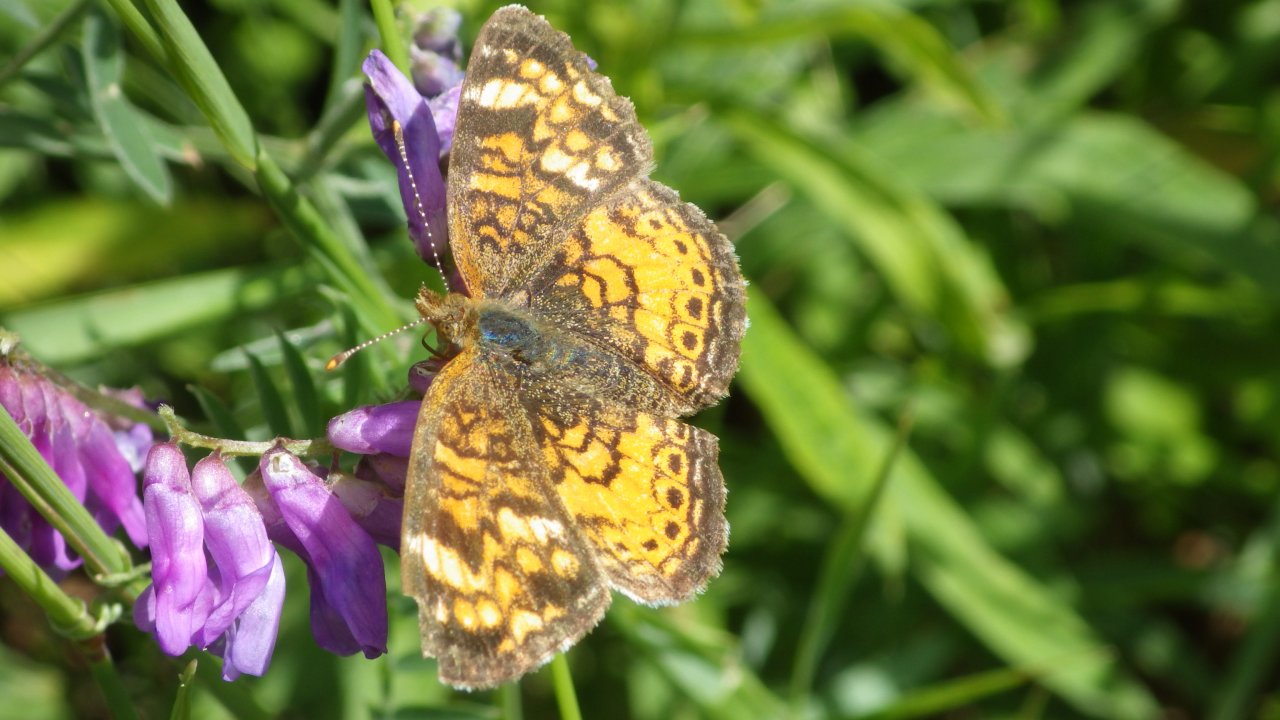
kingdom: Animalia
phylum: Arthropoda
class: Insecta
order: Lepidoptera
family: Nymphalidae
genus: Phyciodes
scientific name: Phyciodes tharos
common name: Northern Crescent
